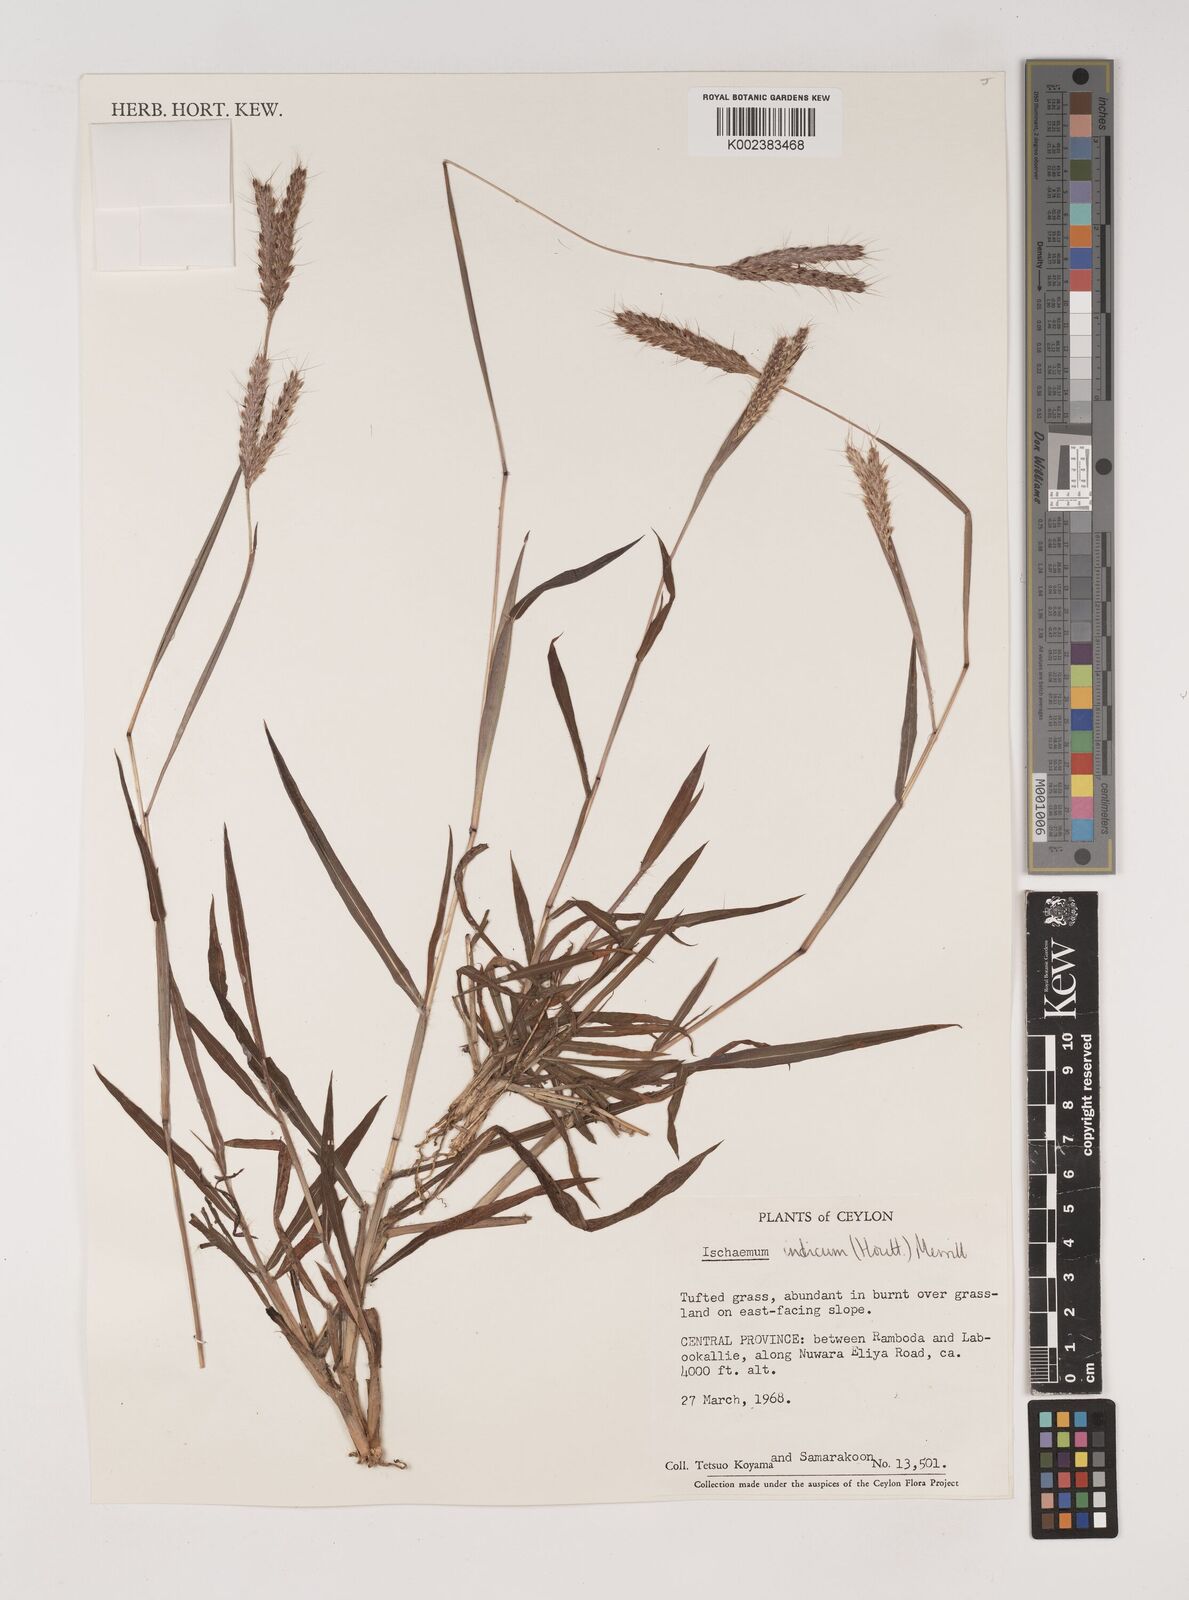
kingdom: Plantae
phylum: Tracheophyta
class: Liliopsida
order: Poales
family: Poaceae
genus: Polytrias
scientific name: Polytrias indica
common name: Indian murainagrass
